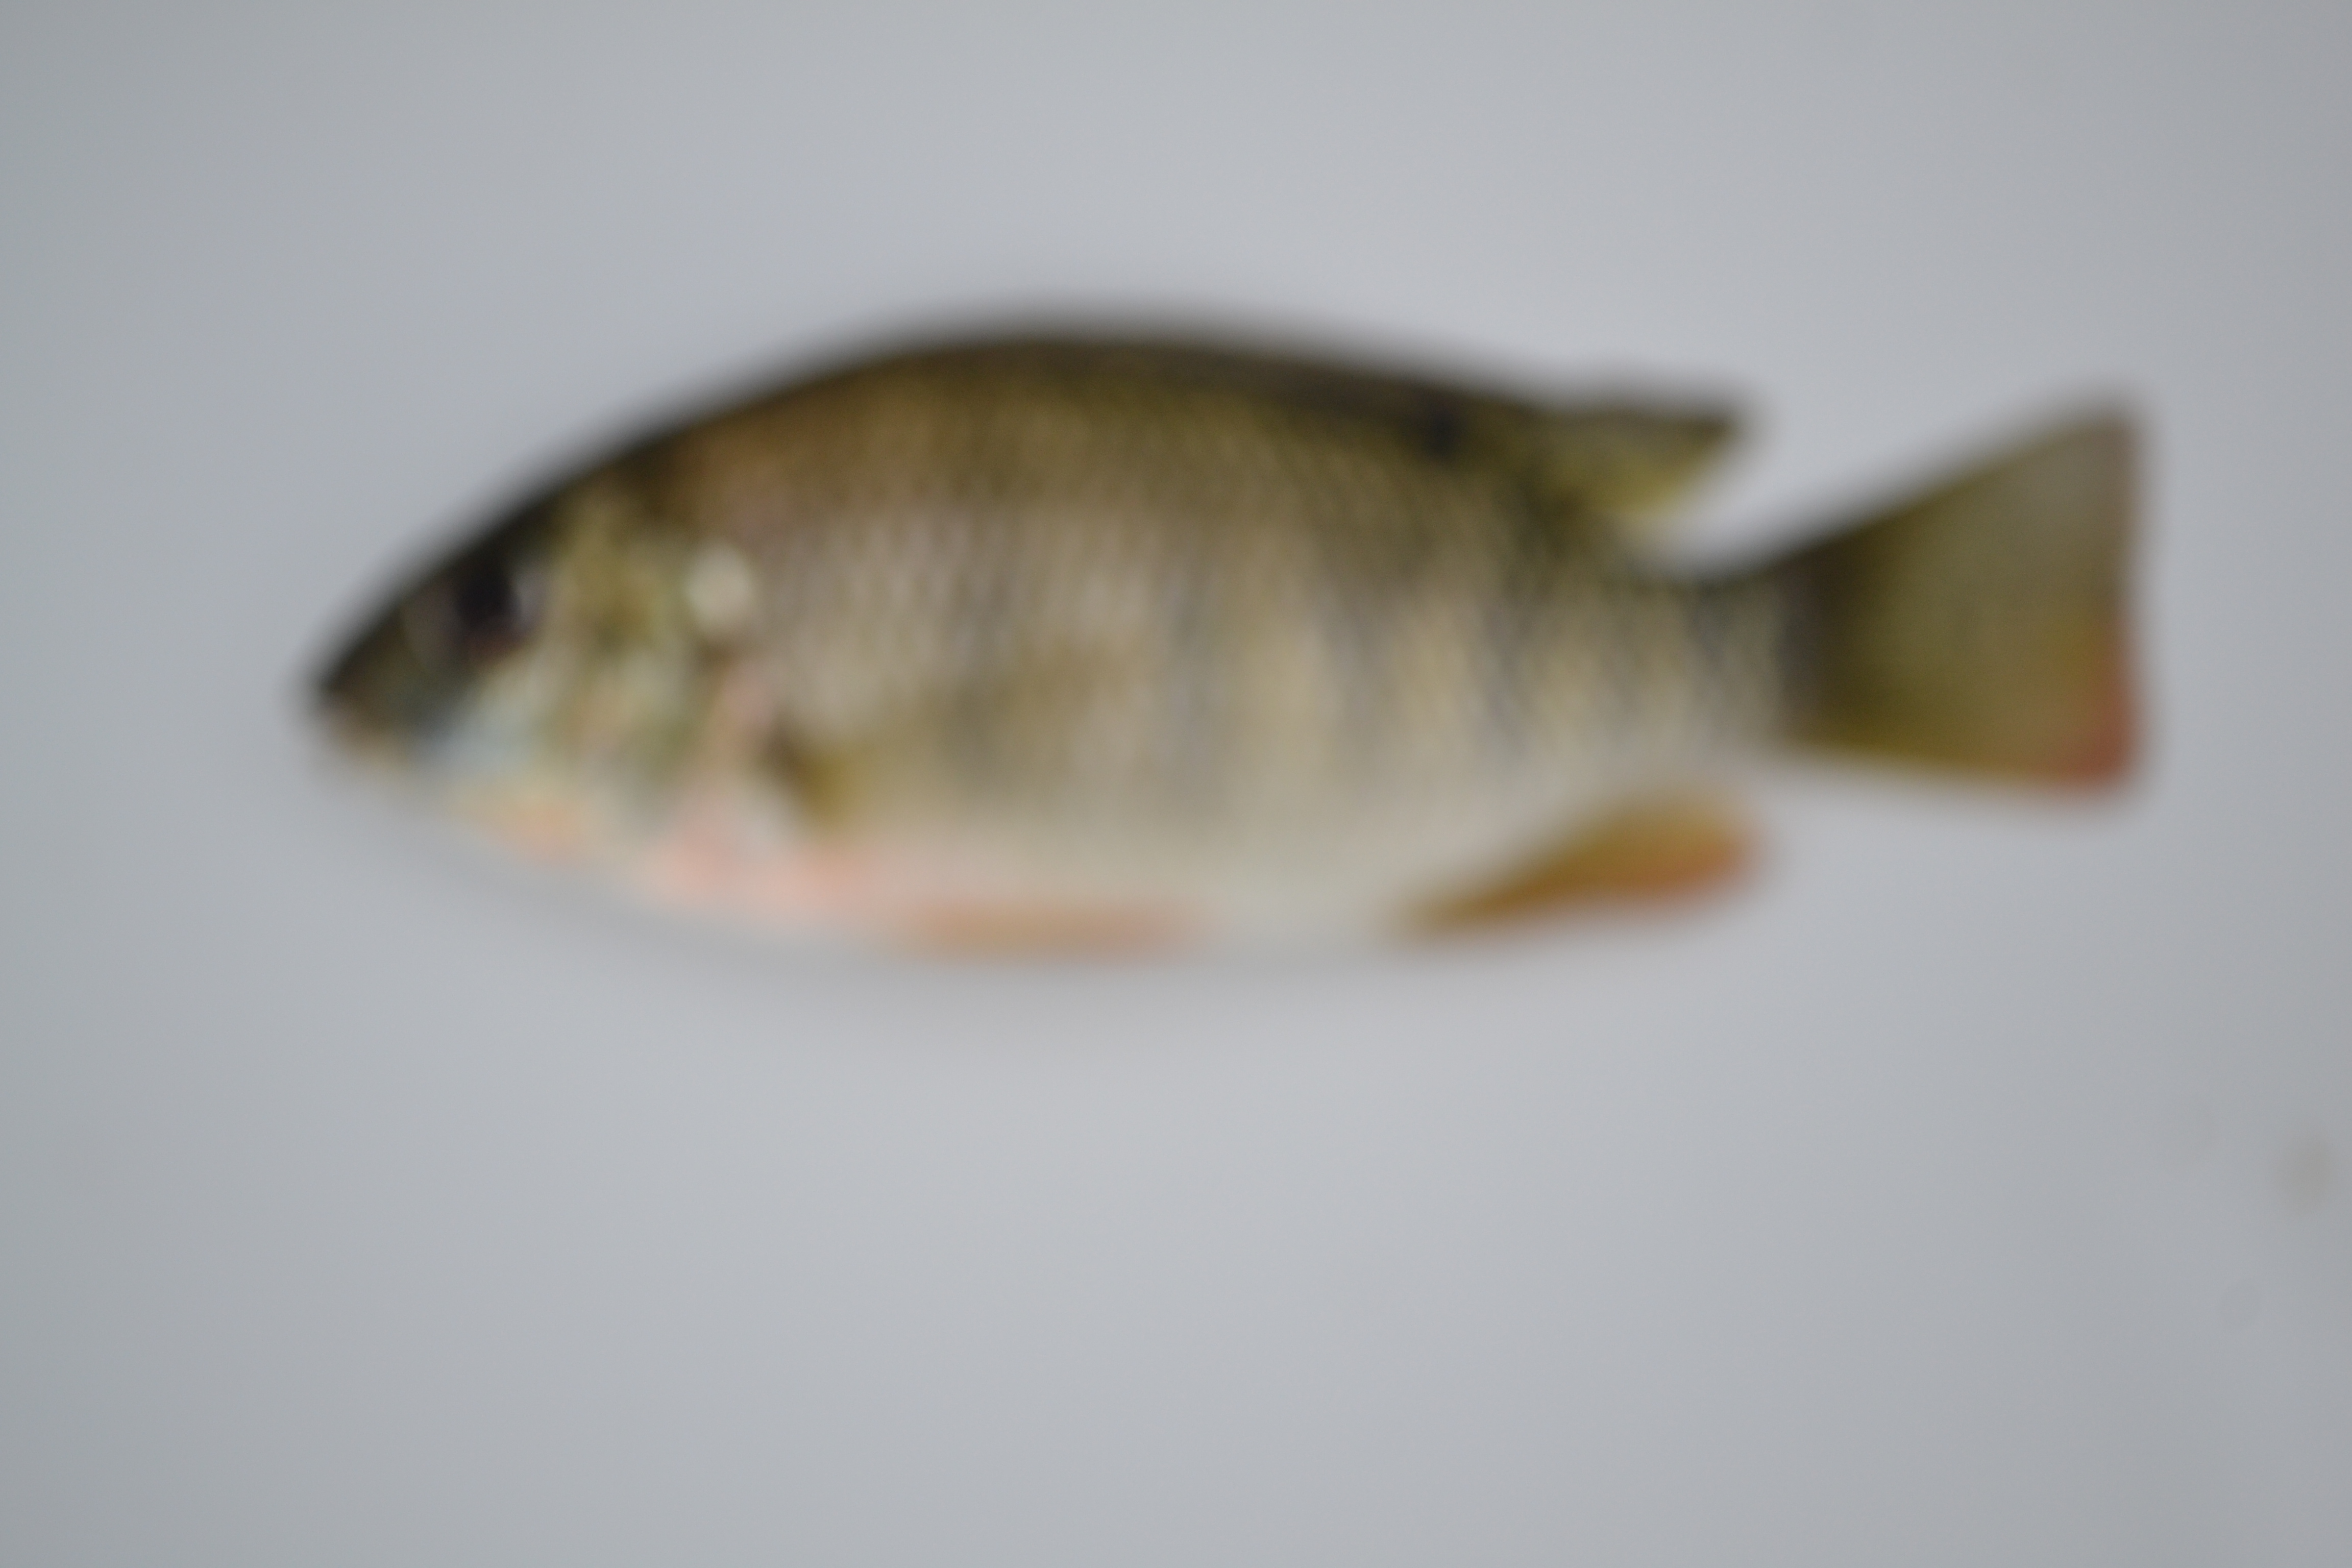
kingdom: Animalia
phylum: Chordata
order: Perciformes
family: Cichlidae
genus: Coptodon
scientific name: Coptodon rendalli
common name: Redbreast tilapia
